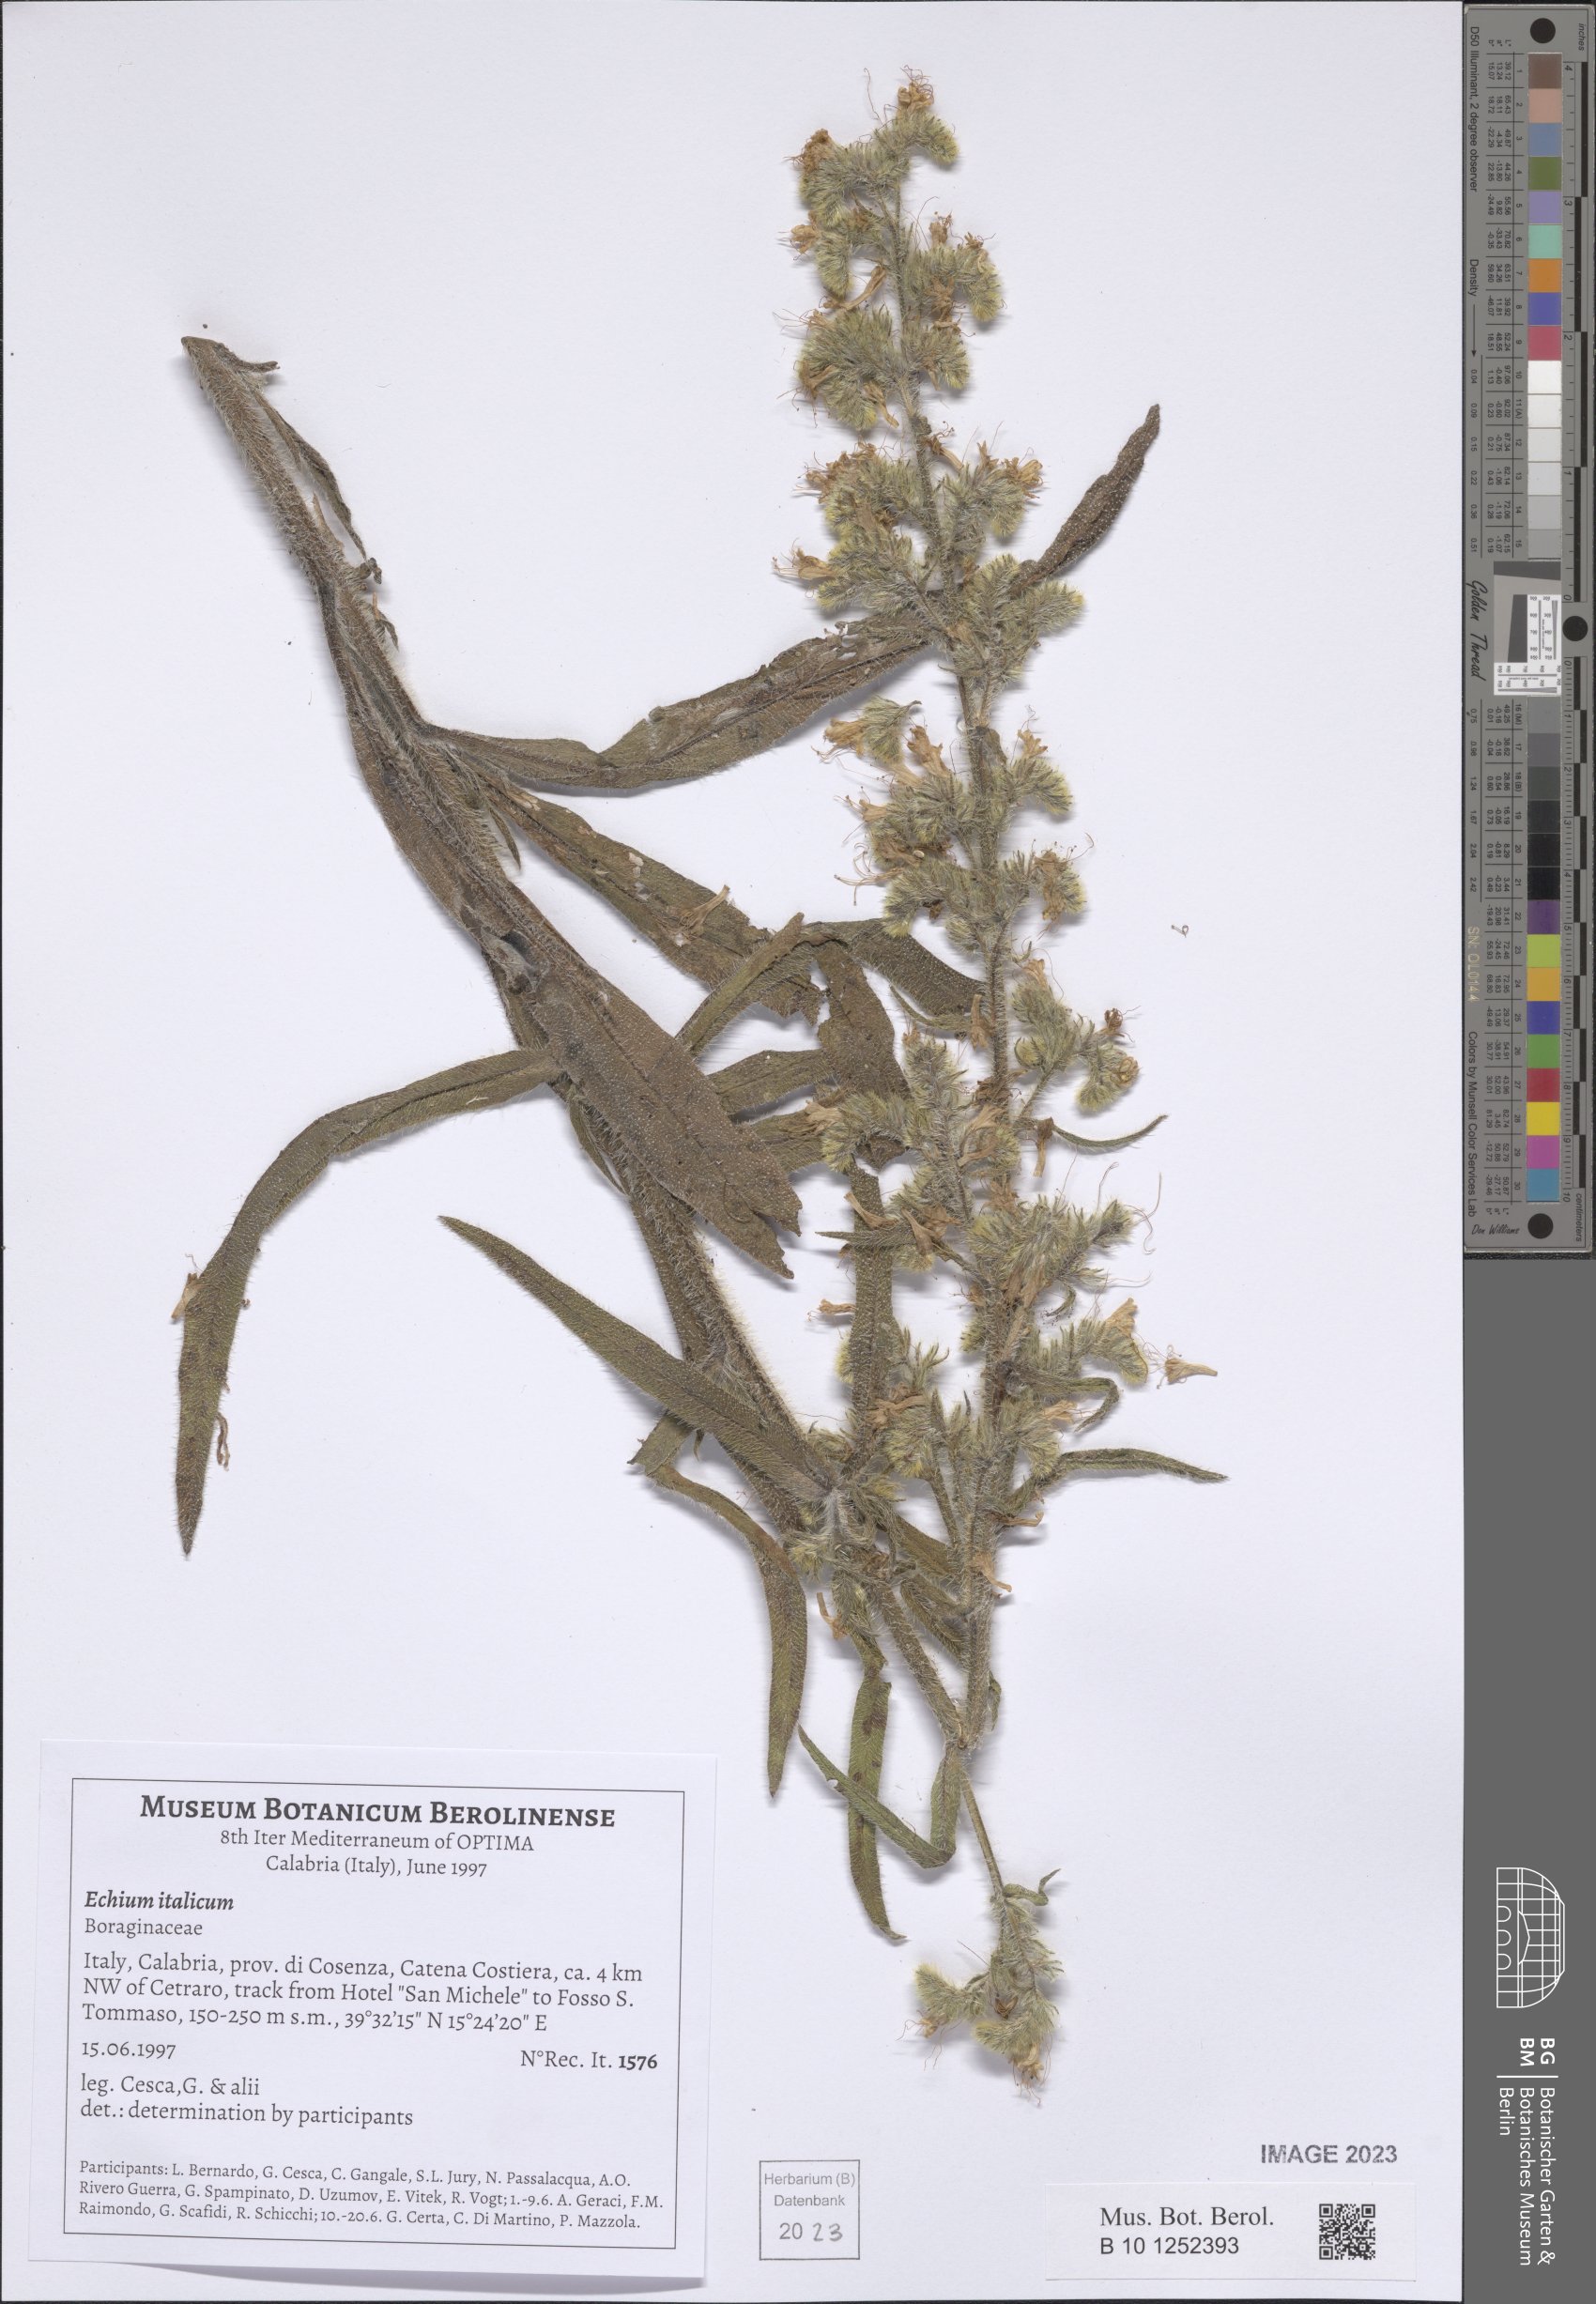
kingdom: Plantae
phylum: Tracheophyta
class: Magnoliopsida
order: Boraginales
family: Boraginaceae
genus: Echium
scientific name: Echium italicum
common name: Italian viper's bugloss
